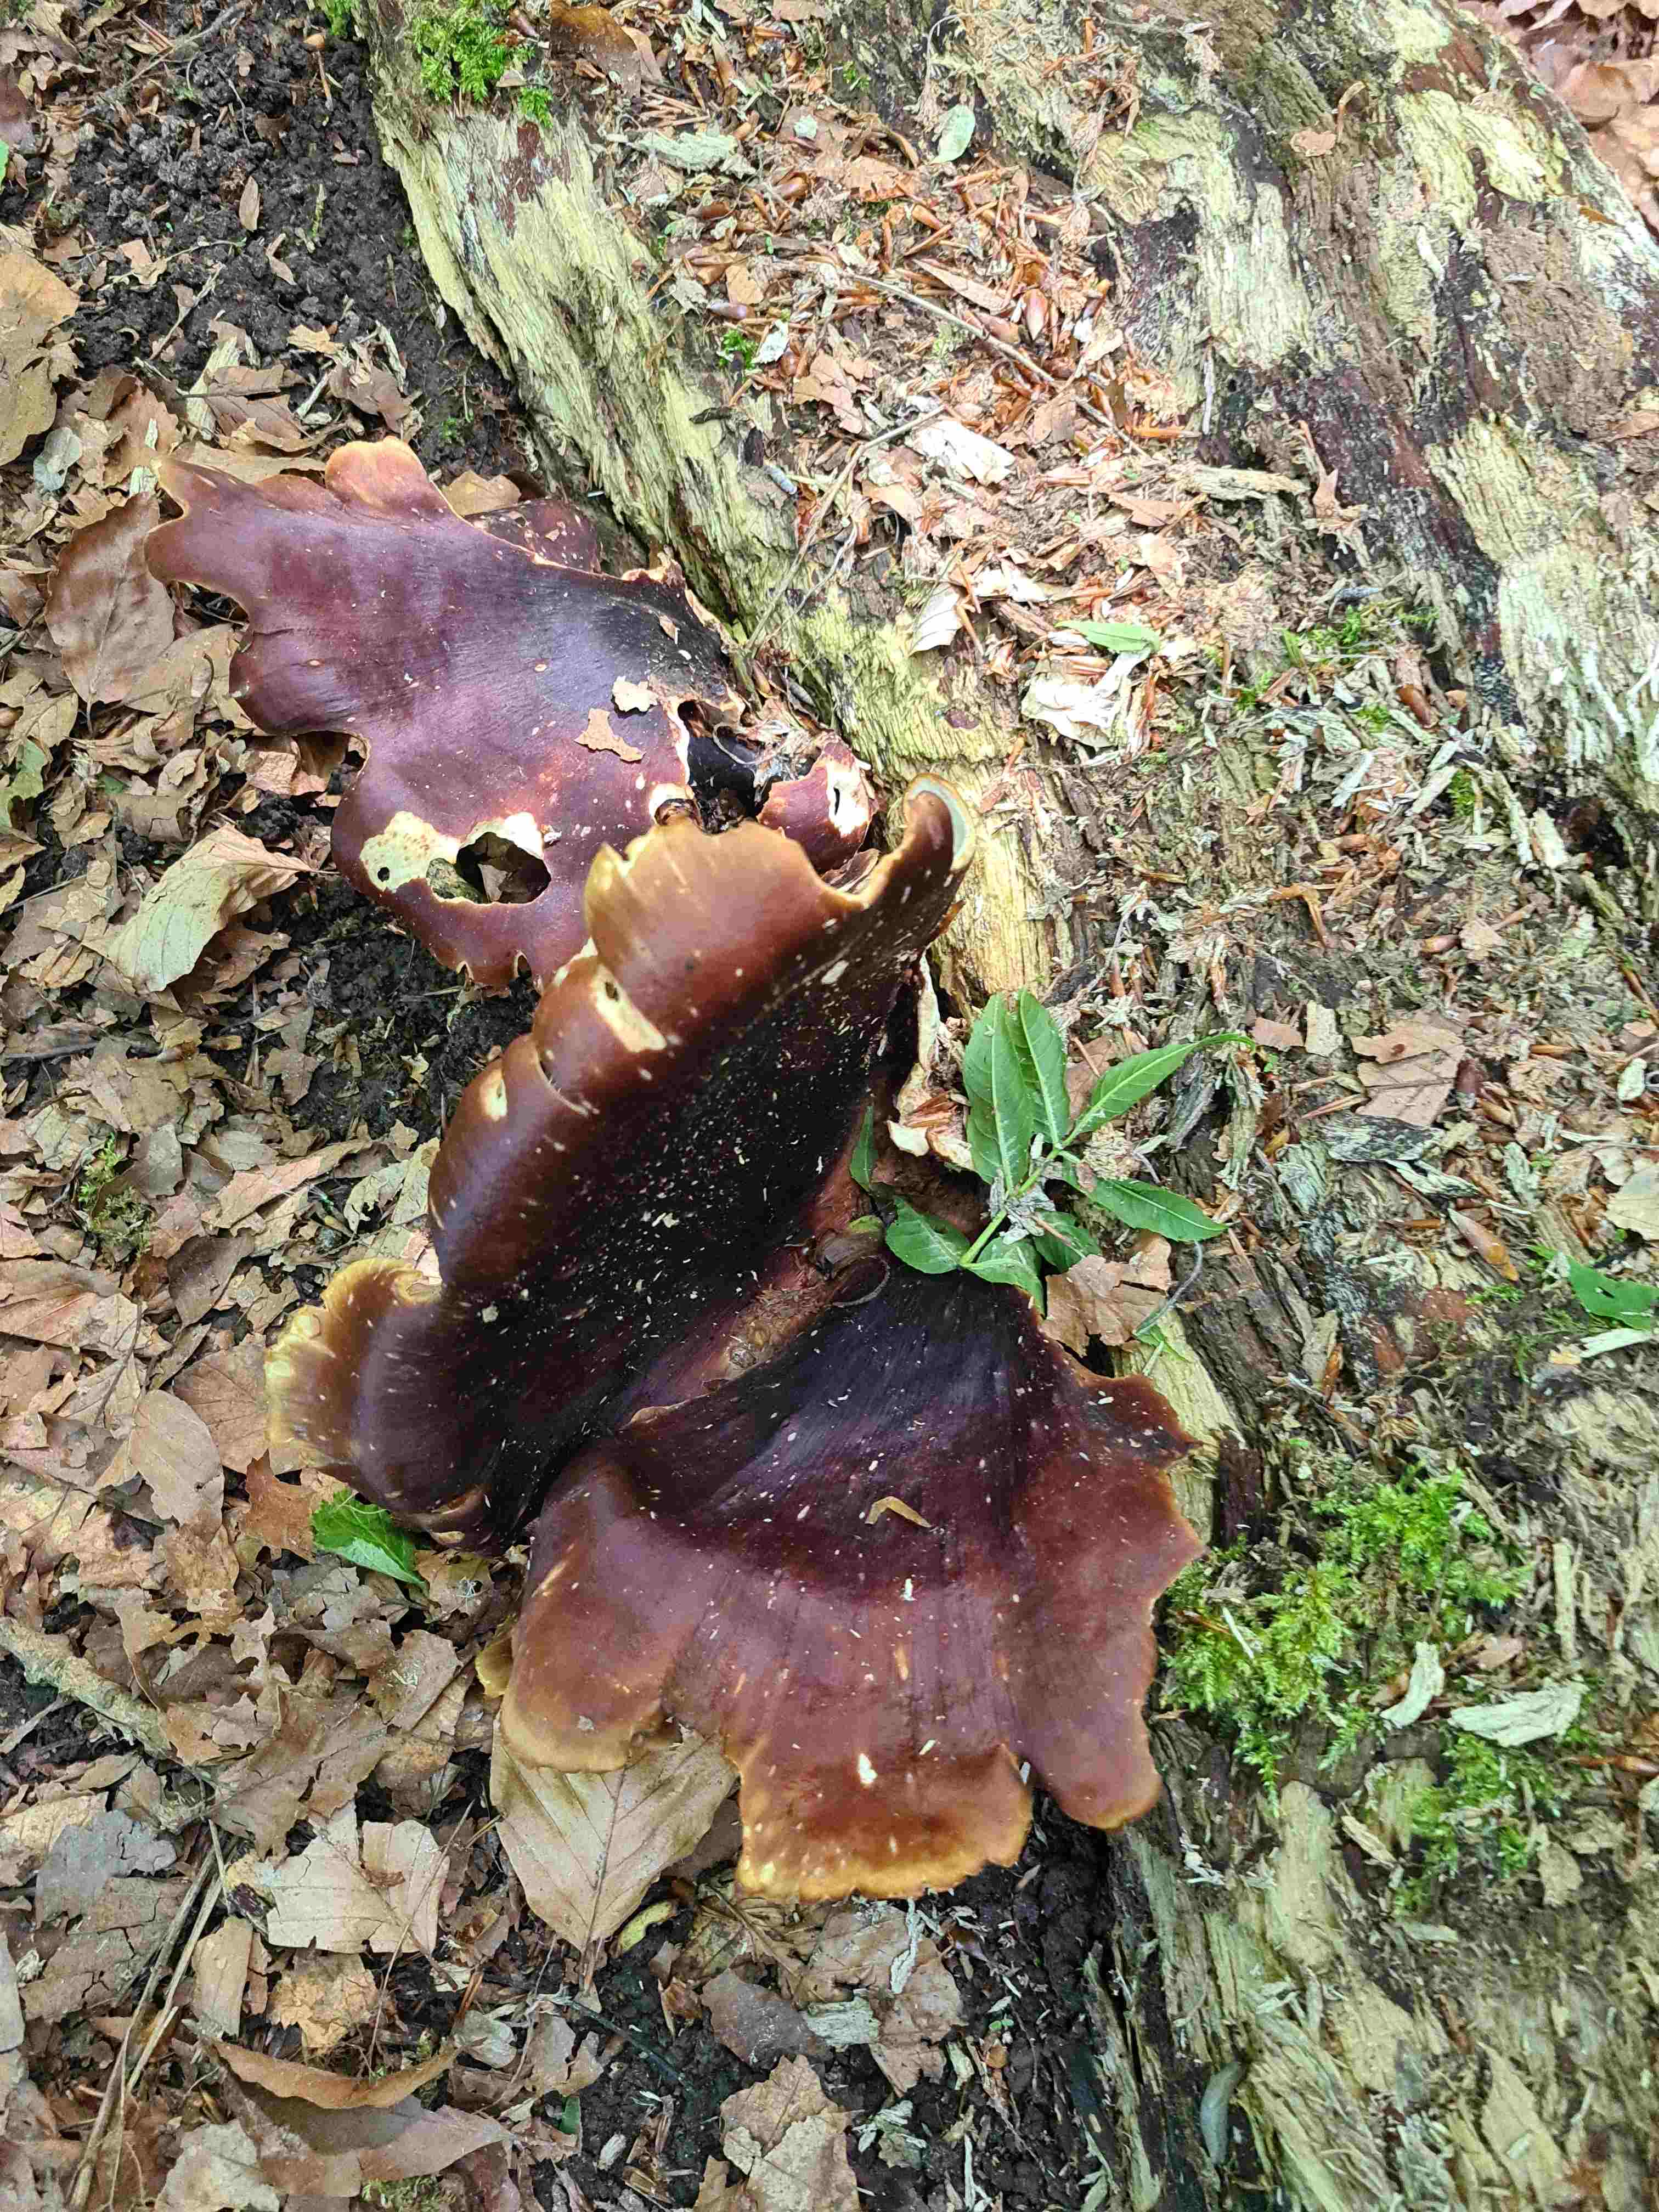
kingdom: Fungi
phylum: Basidiomycota
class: Agaricomycetes
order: Polyporales
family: Polyporaceae
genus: Picipes
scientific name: Picipes badius
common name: kastaniebrun stilkporesvamp
